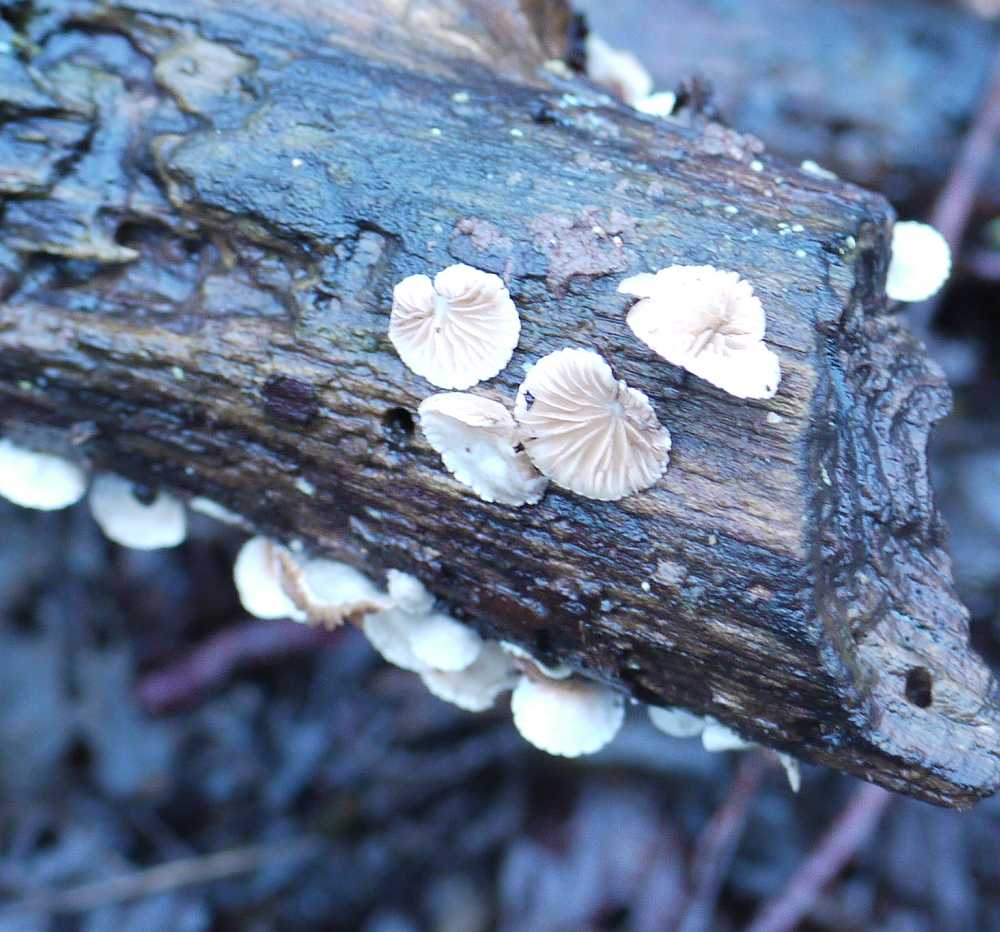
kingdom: Fungi
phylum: Basidiomycota
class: Agaricomycetes
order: Agaricales
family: Crepidotaceae
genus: Crepidotus
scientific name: Crepidotus cesatii
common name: almindelig muslingesvamp
